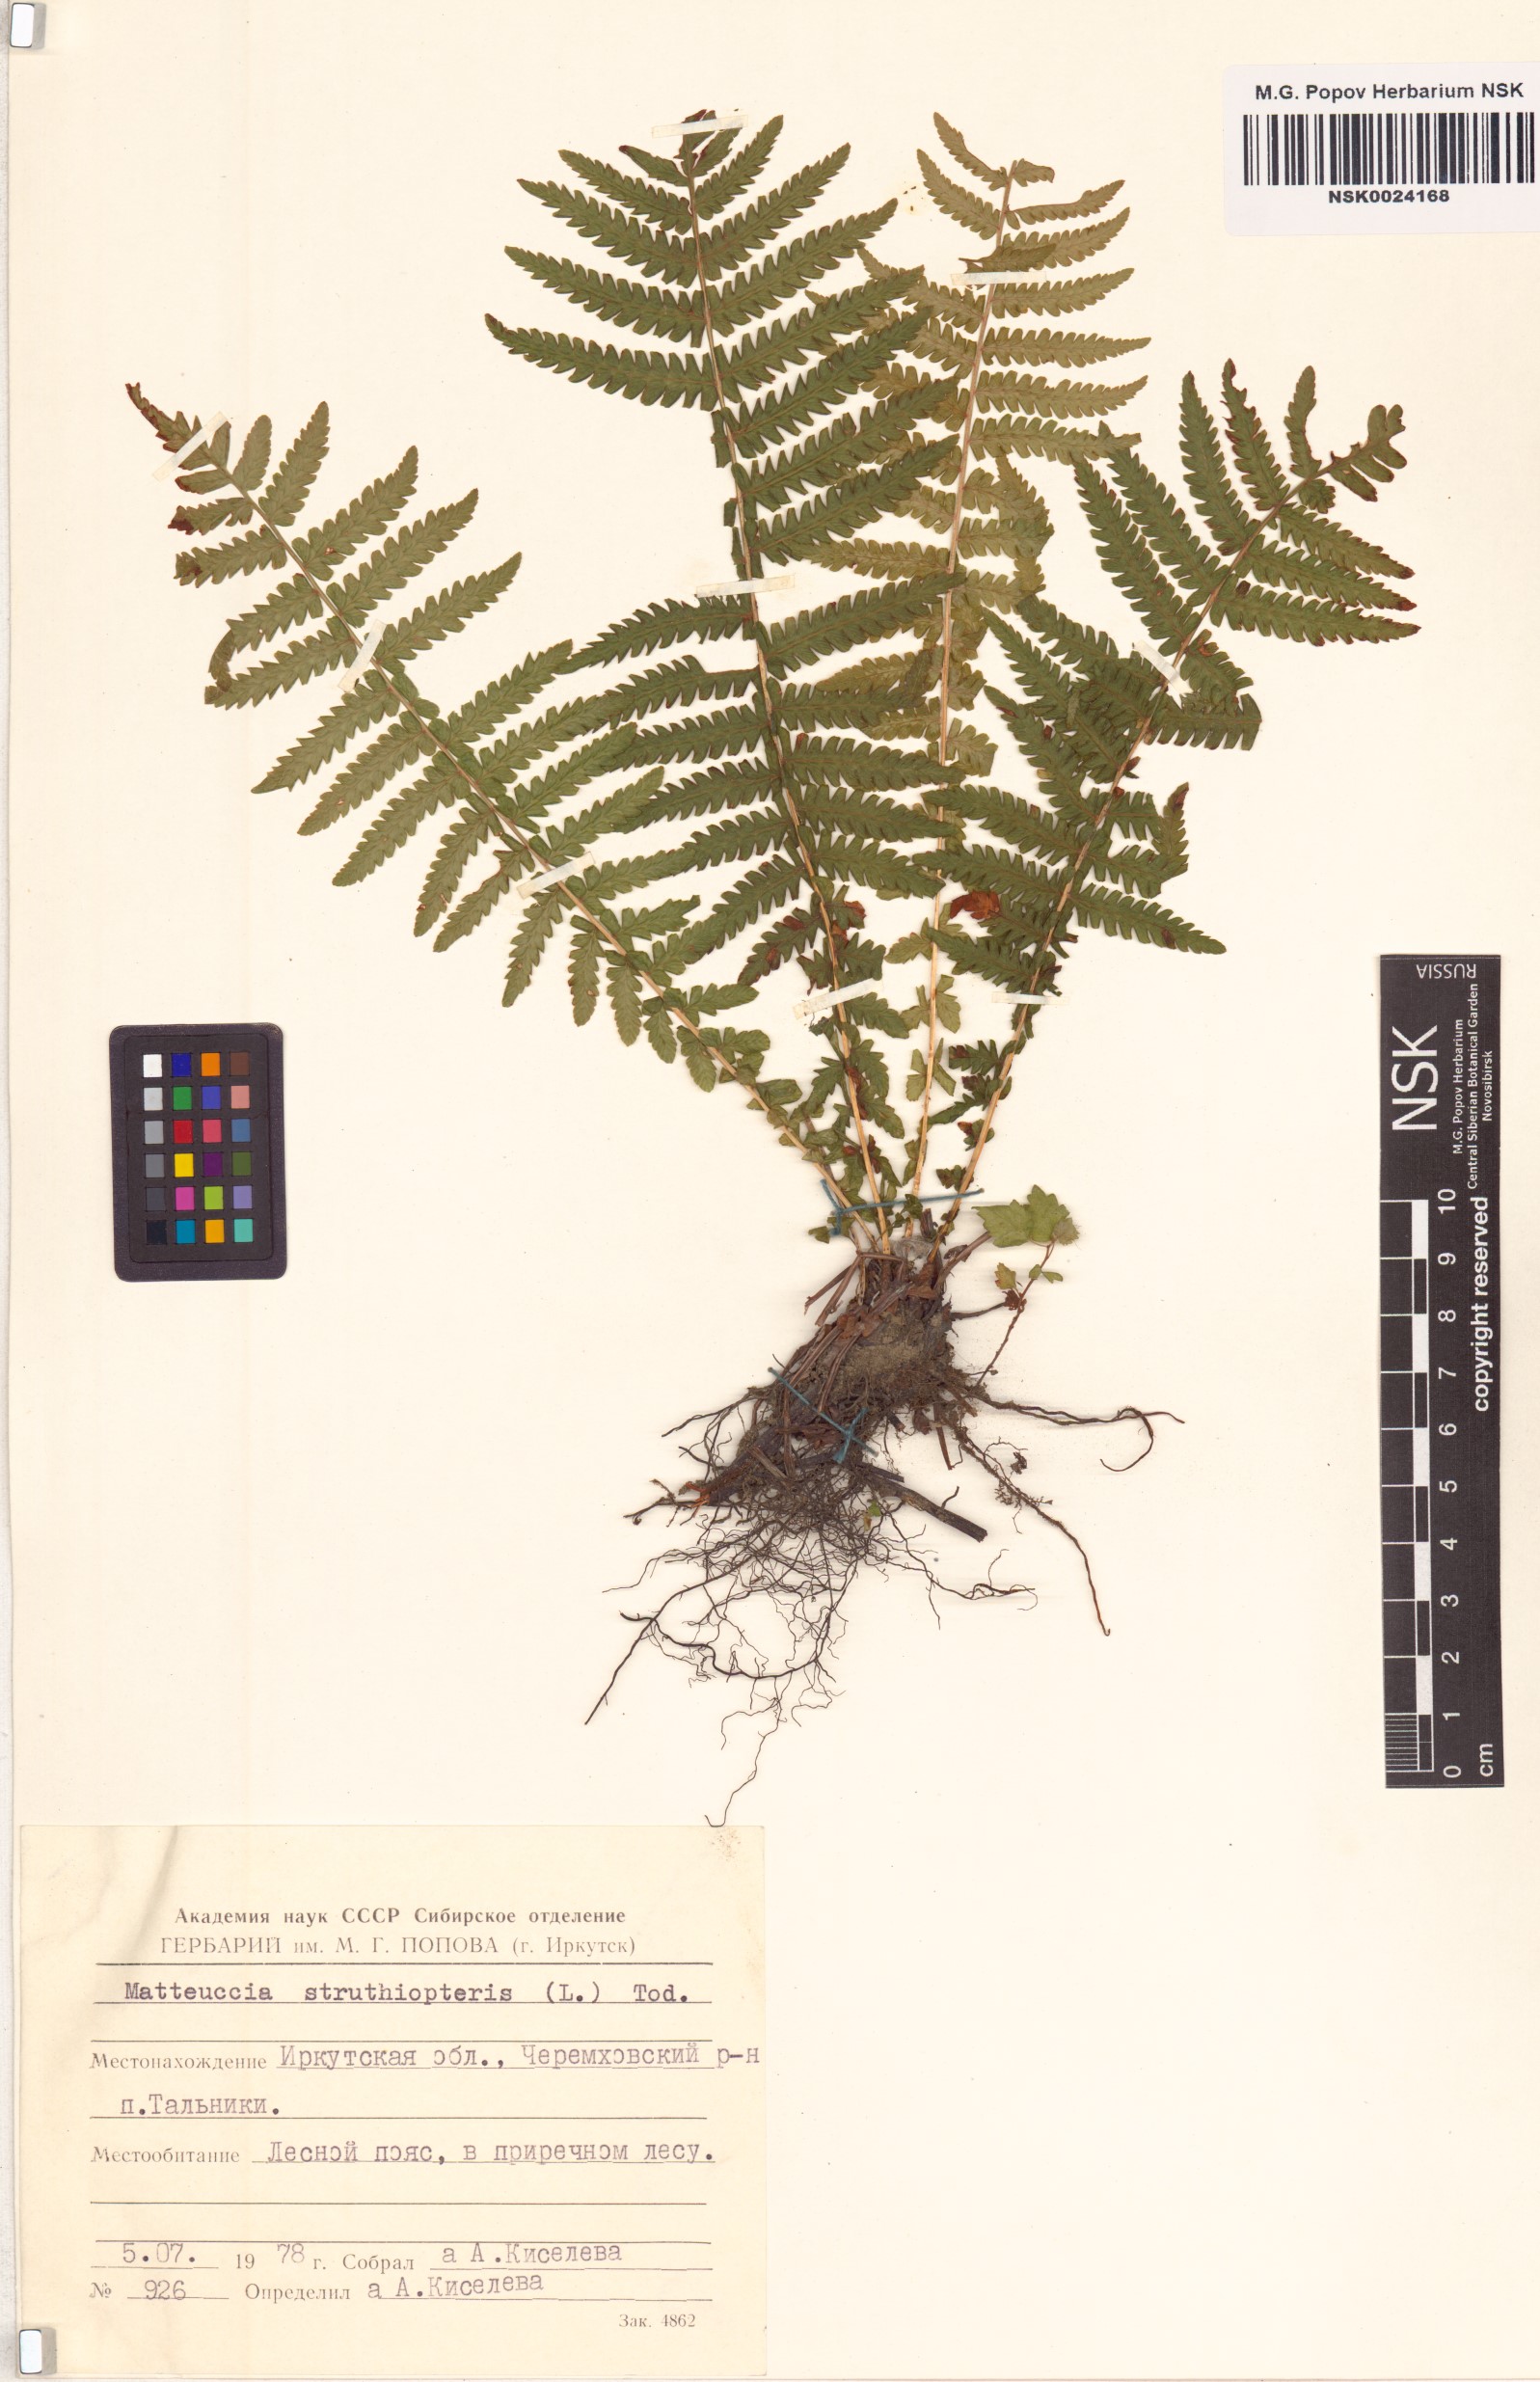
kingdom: Plantae
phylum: Tracheophyta
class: Polypodiopsida
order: Polypodiales
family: Onocleaceae
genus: Matteuccia
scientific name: Matteuccia struthiopteris
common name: Ostrich fern
